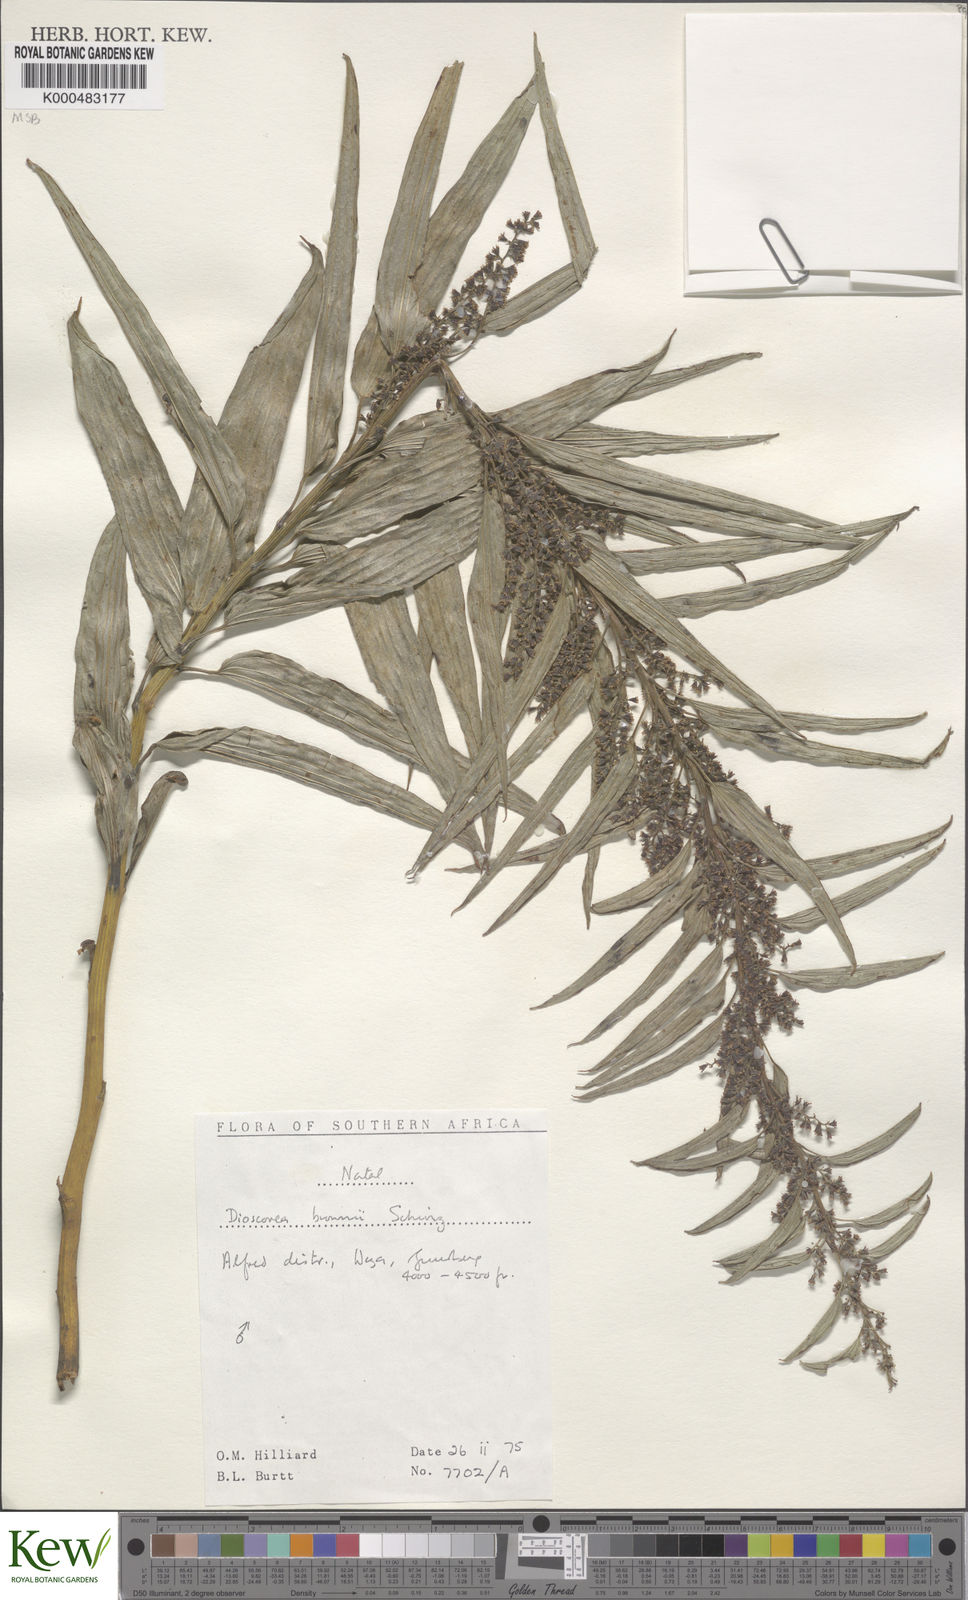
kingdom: Plantae
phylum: Tracheophyta
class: Liliopsida
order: Dioscoreales
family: Dioscoreaceae
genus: Dioscorea
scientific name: Dioscorea brownii
